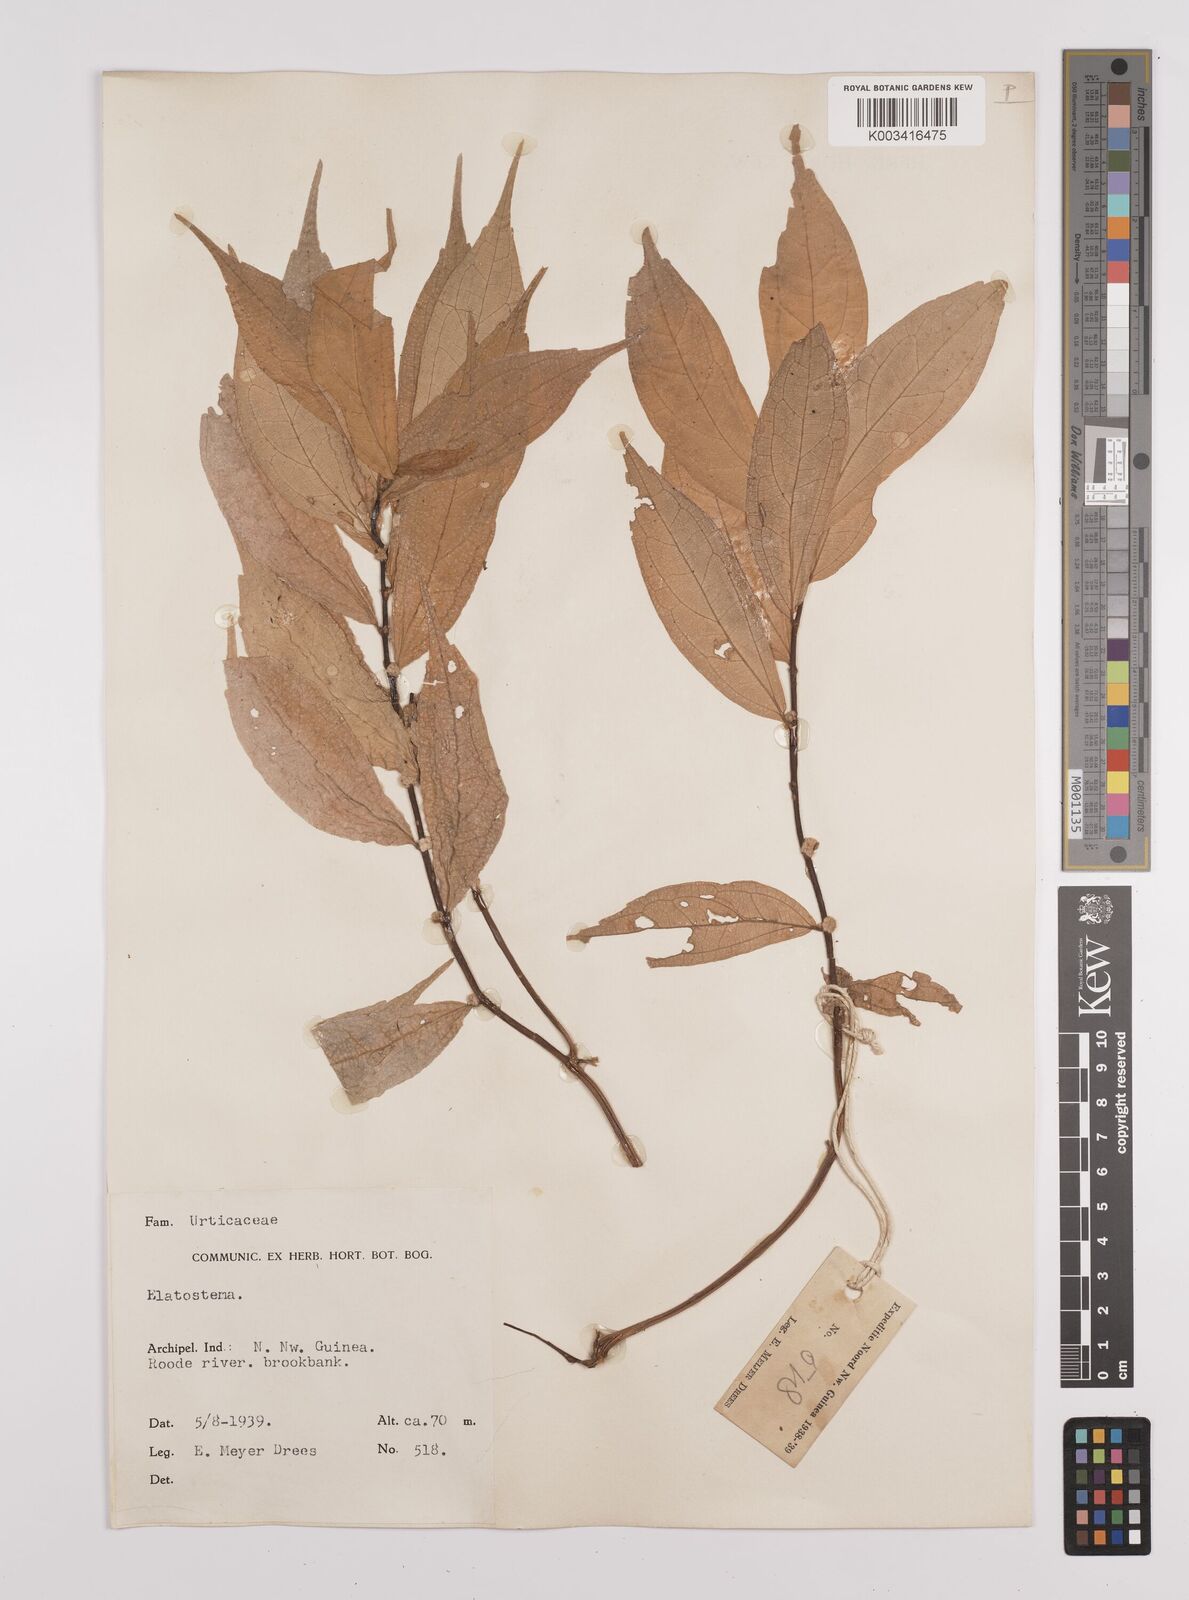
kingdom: Plantae
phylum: Tracheophyta
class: Magnoliopsida
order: Rosales
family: Urticaceae
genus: Elatostema
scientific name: Elatostema
